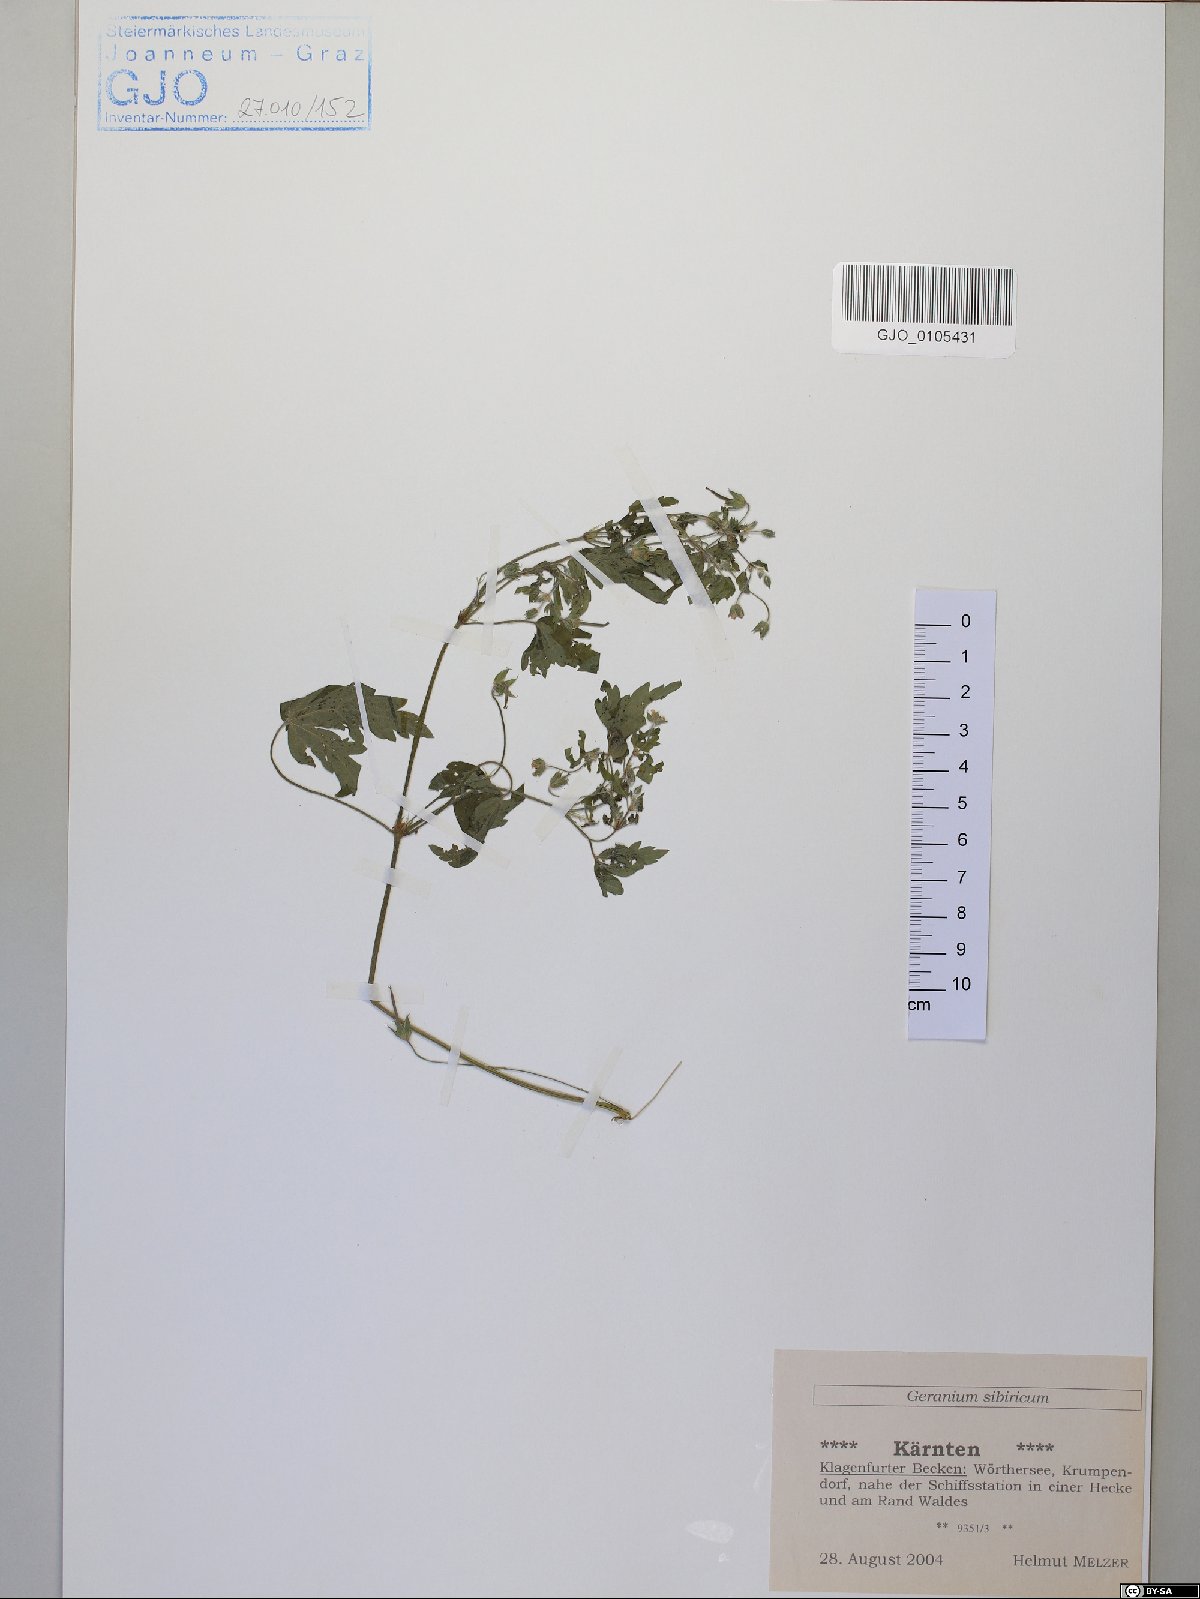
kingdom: Plantae
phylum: Tracheophyta
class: Magnoliopsida
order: Geraniales
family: Geraniaceae
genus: Geranium
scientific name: Geranium sibiricum
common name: Siberian crane's-bill
